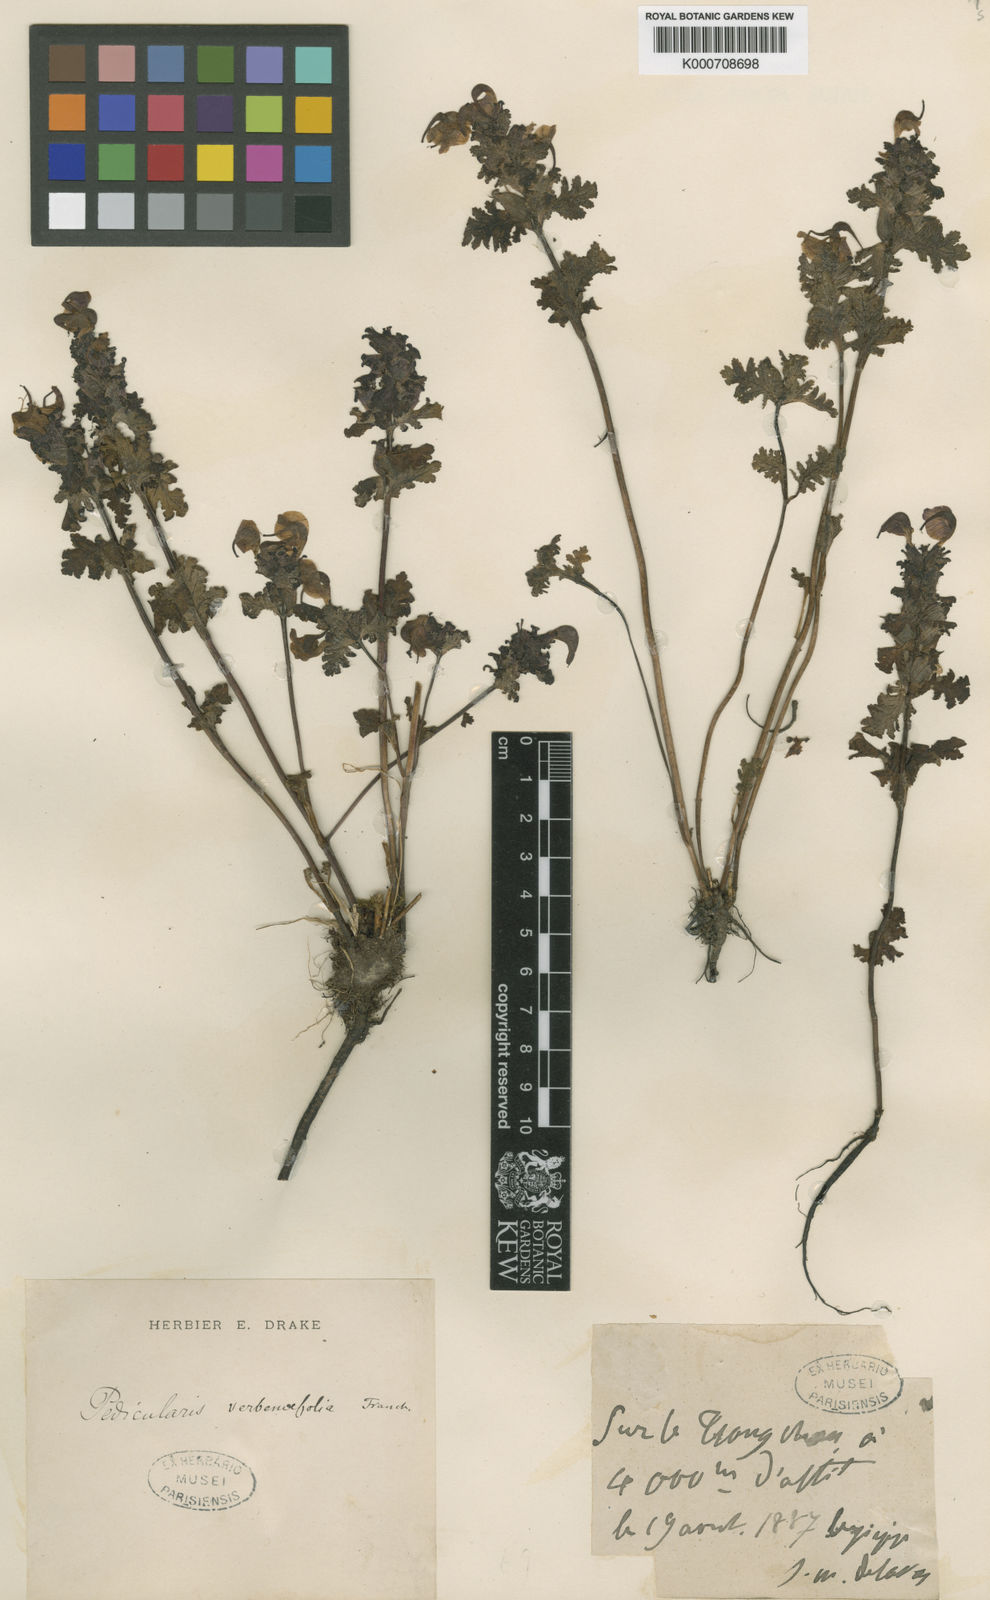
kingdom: Plantae
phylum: Tracheophyta
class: Magnoliopsida
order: Lamiales
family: Orobanchaceae
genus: Pedicularis
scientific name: Pedicularis
